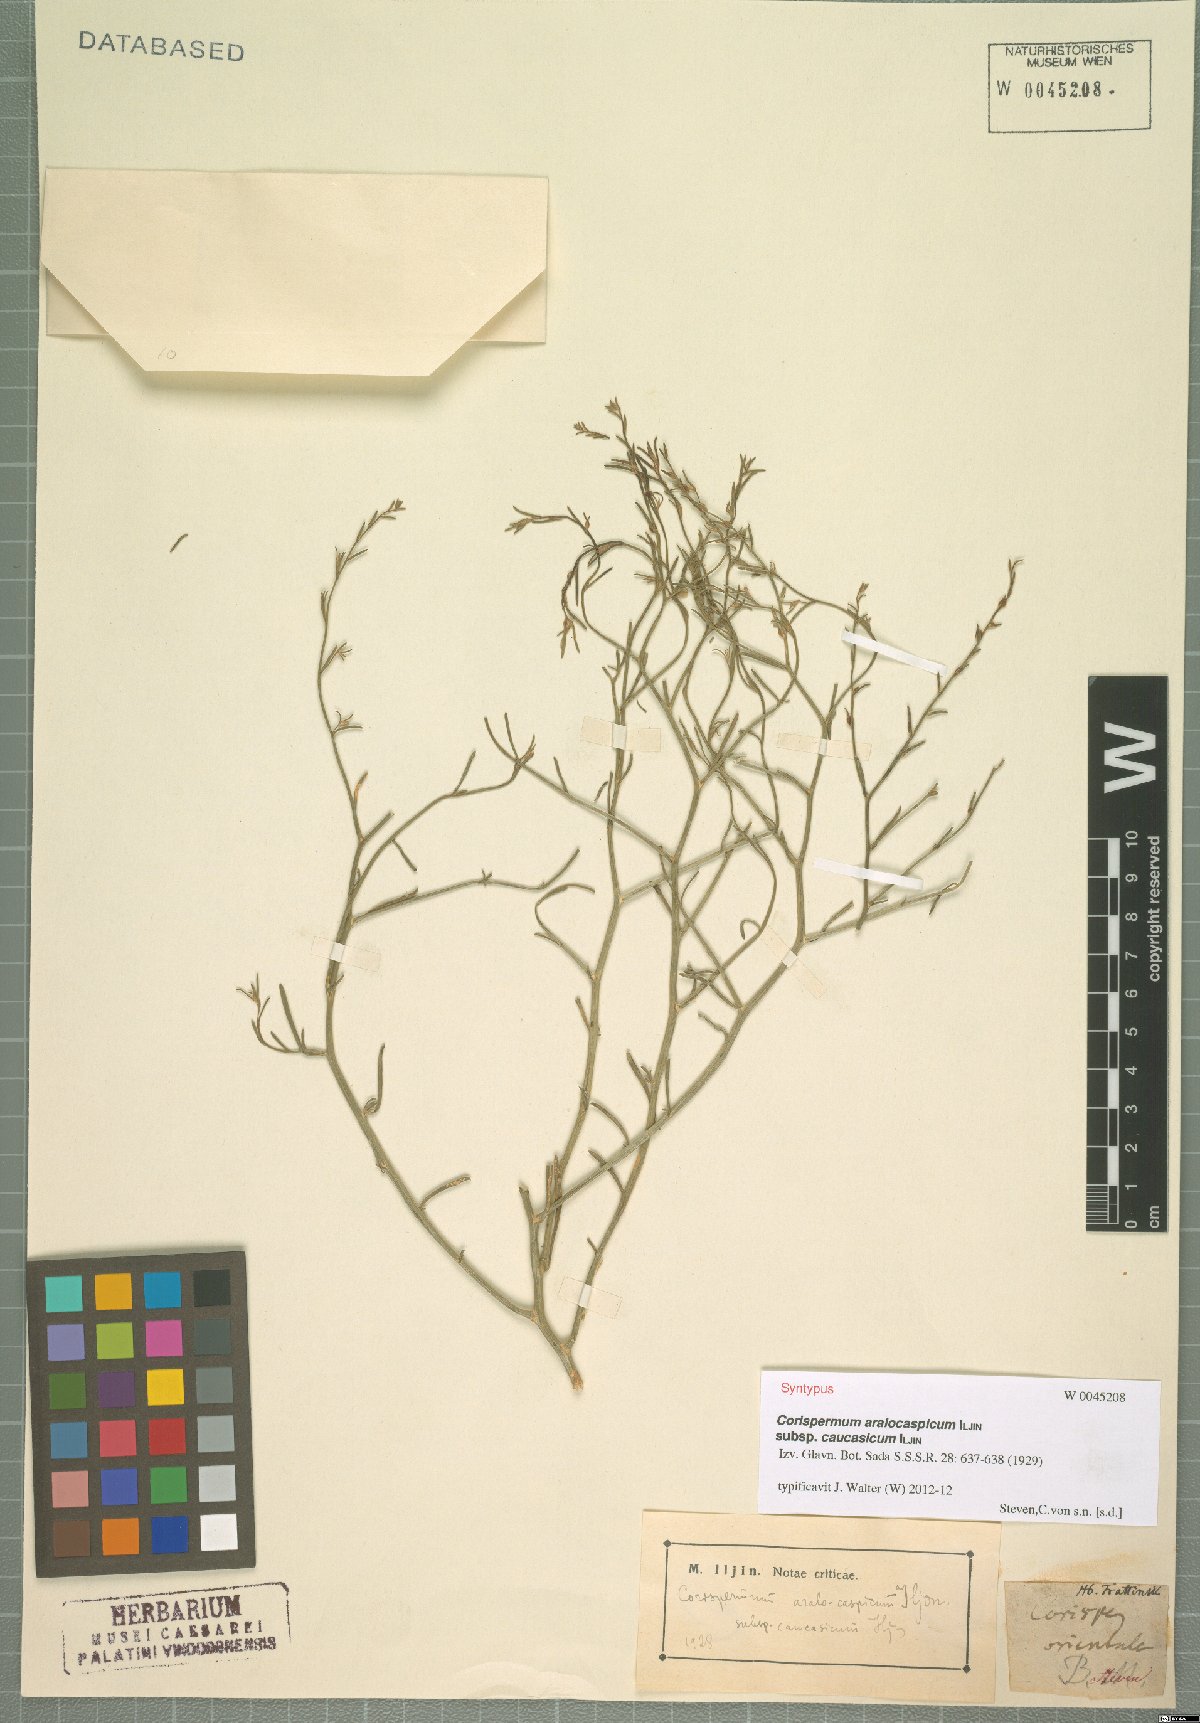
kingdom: Plantae
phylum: Tracheophyta
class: Magnoliopsida
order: Caryophyllales
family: Amaranthaceae
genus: Corispermum
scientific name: Corispermum aralocaspicum
